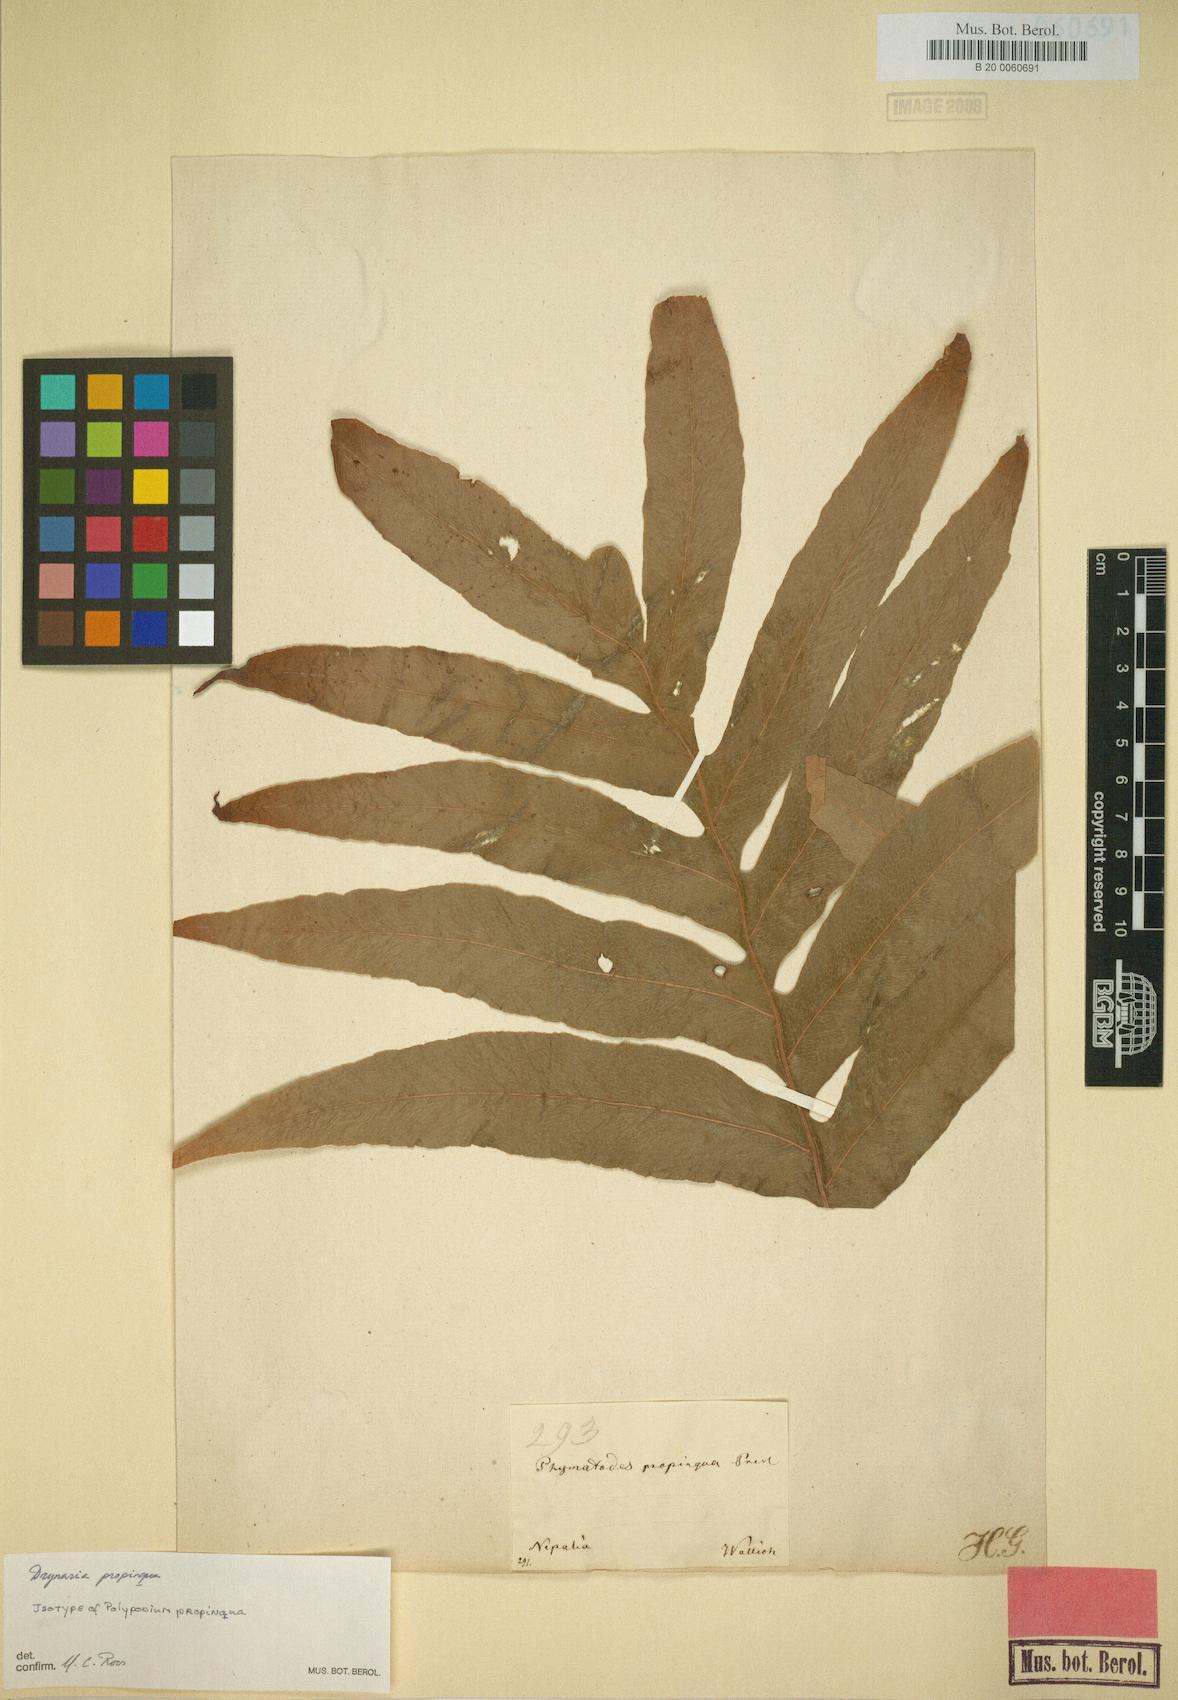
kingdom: Plantae
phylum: Tracheophyta
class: Polypodiopsida
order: Polypodiales
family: Polypodiaceae
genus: Drynaria
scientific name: Drynaria propinqua
